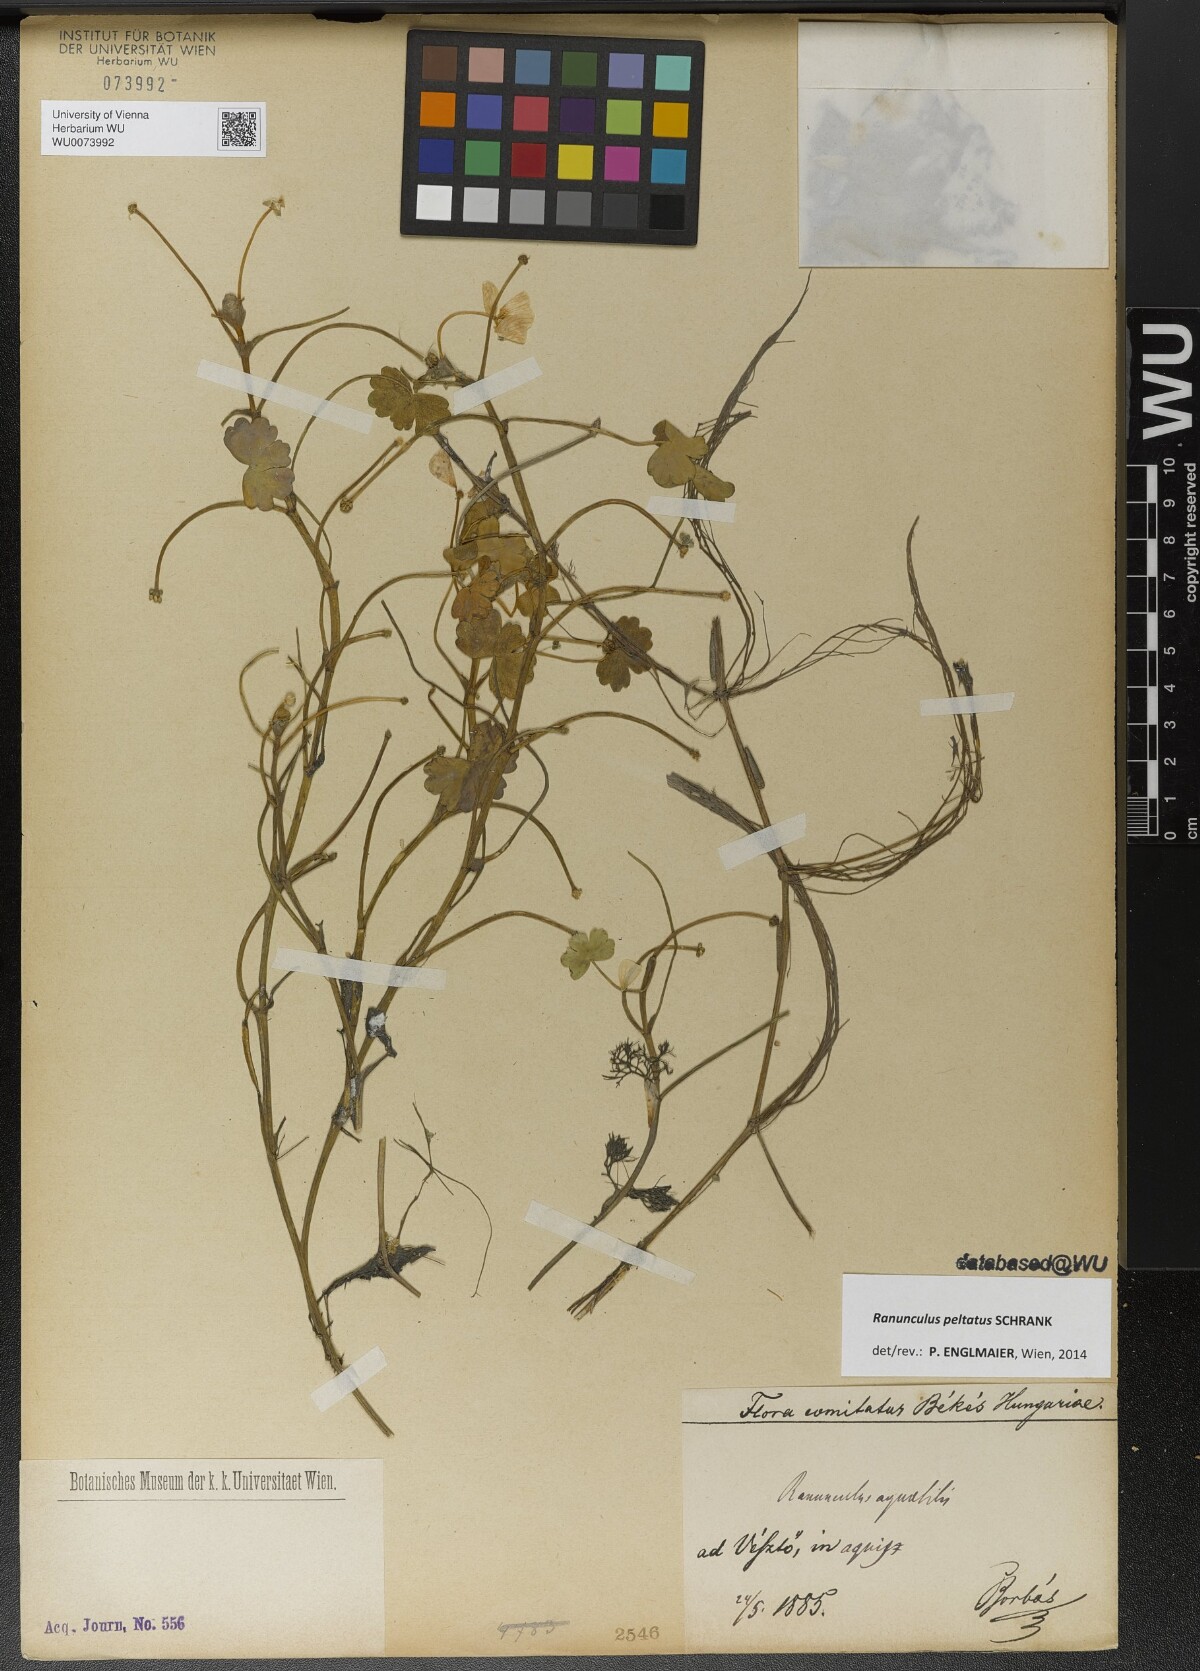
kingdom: Plantae
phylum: Tracheophyta
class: Magnoliopsida
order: Ranunculales
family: Ranunculaceae
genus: Ranunculus
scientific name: Ranunculus peltatus
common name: Pond water-crowfoot
